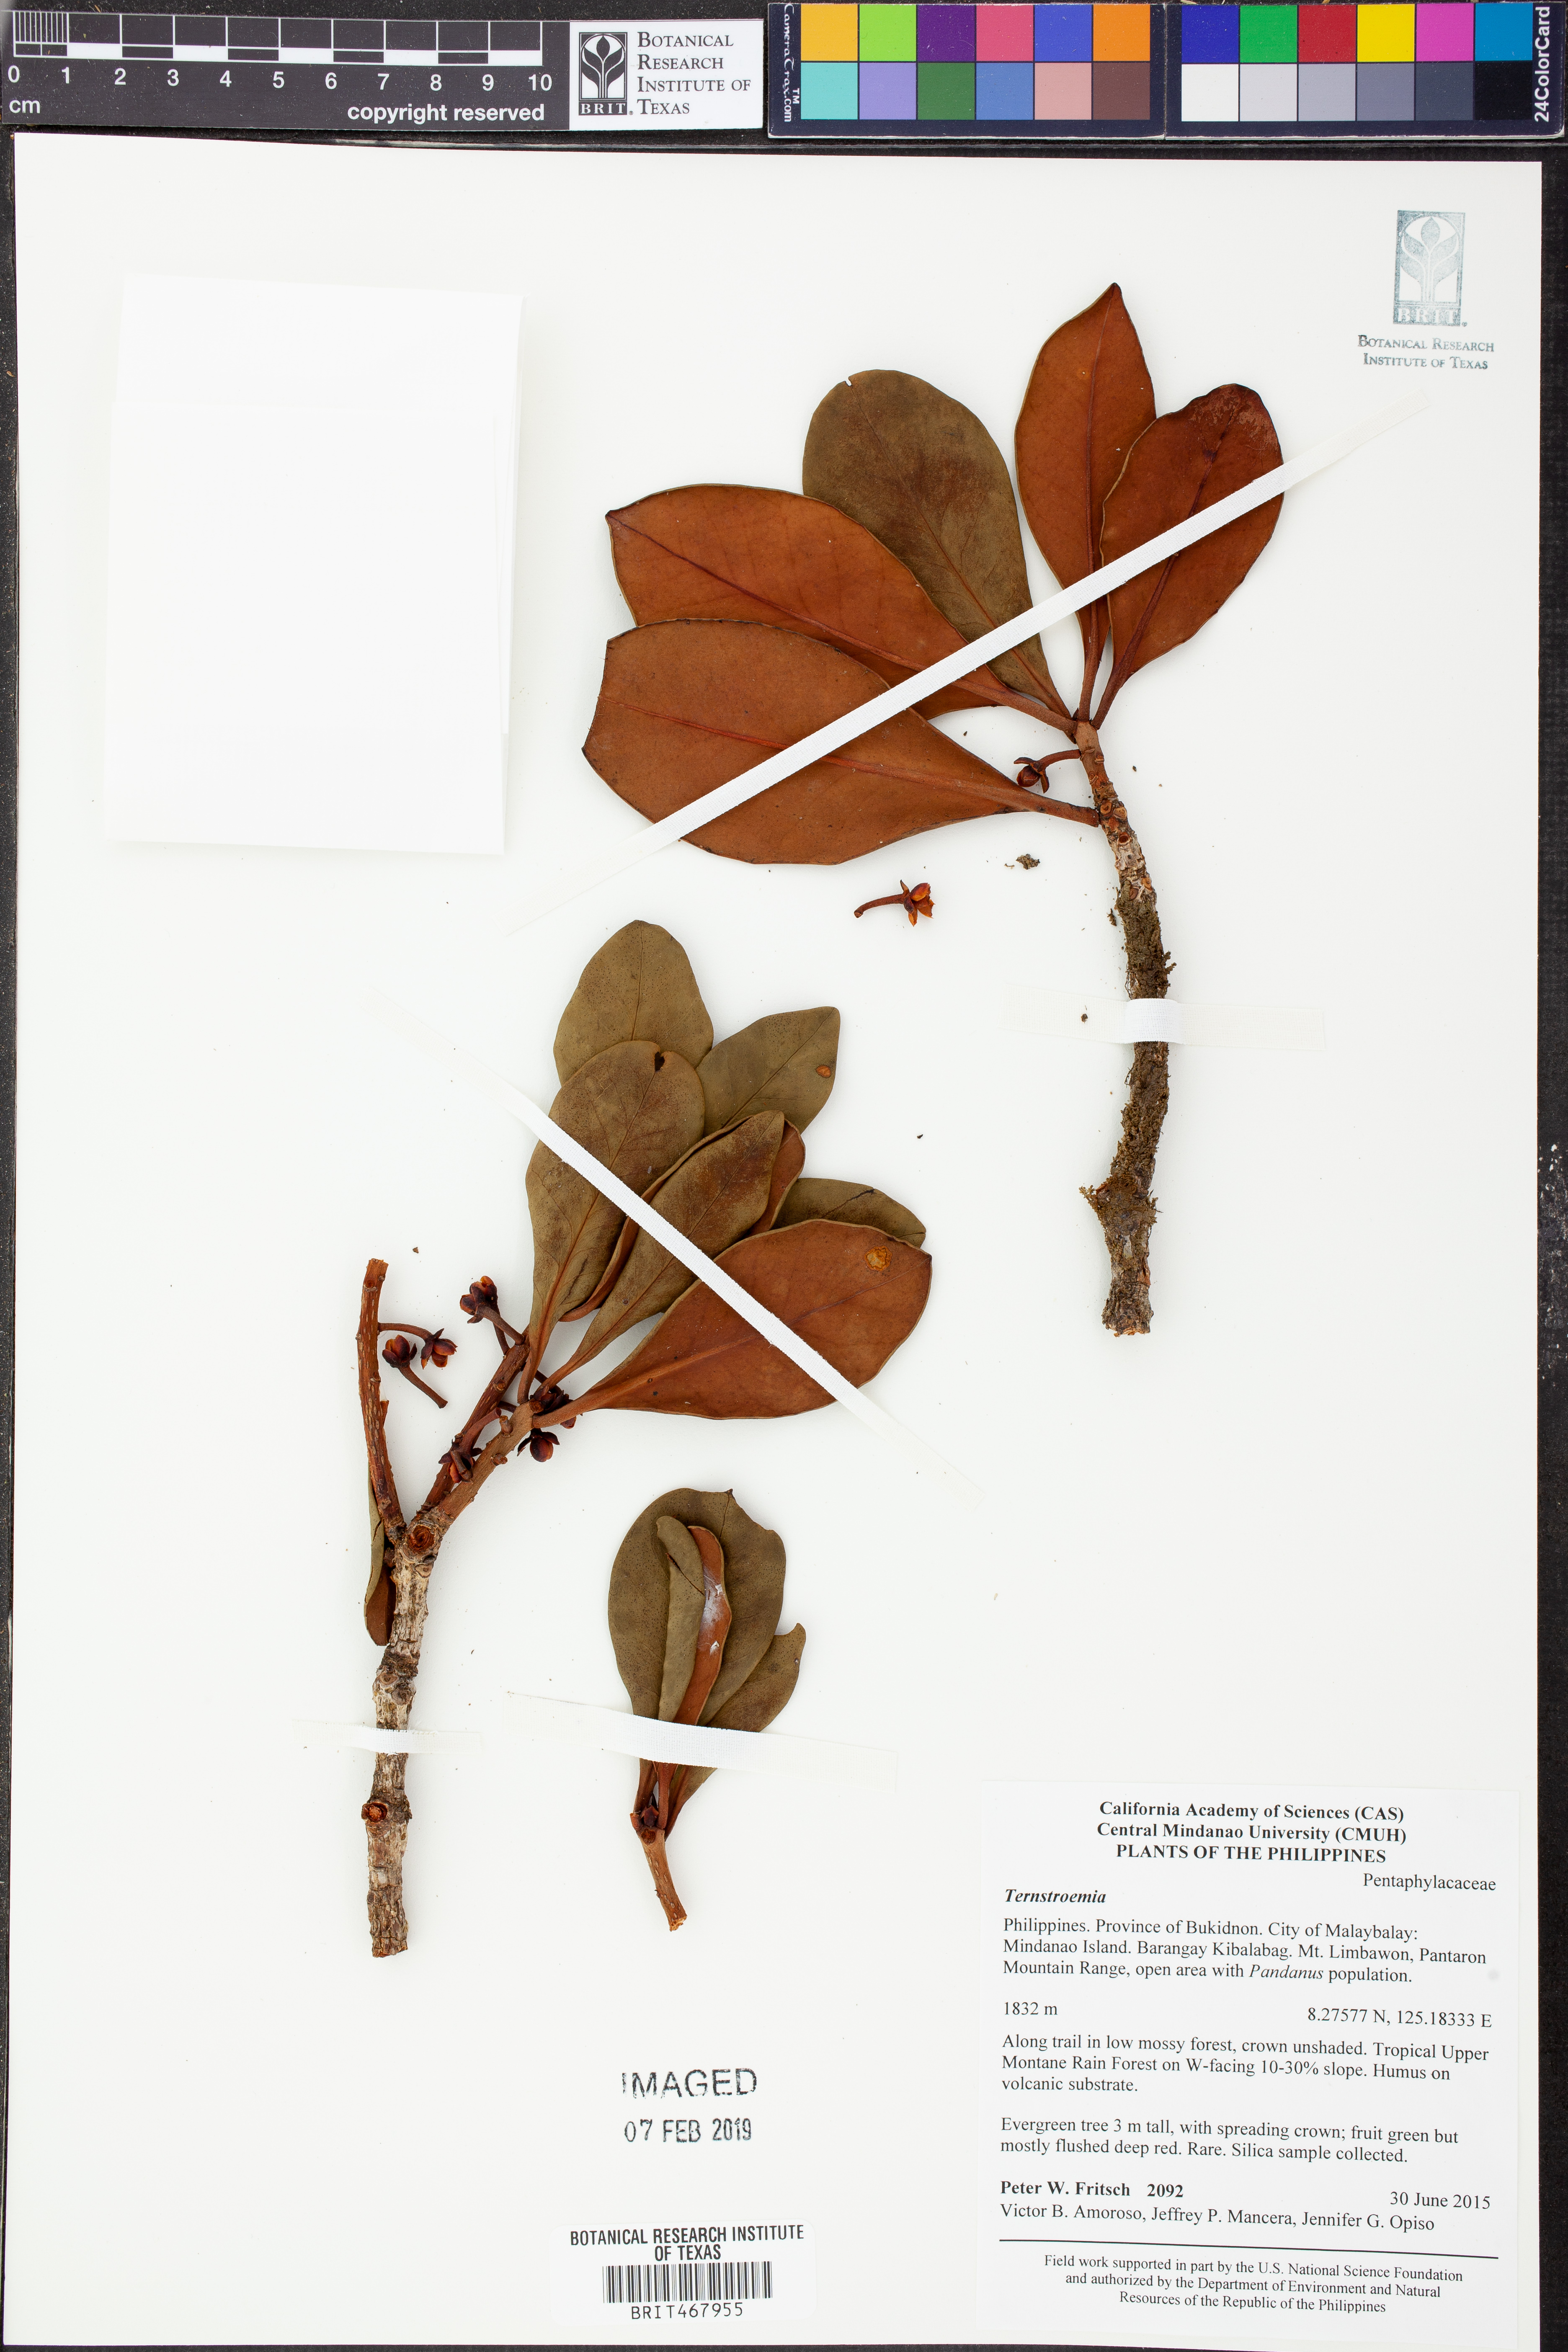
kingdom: Plantae
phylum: Tracheophyta
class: Magnoliopsida
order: Ericales
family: Pentaphylacaceae
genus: Ternstroemia
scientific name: Ternstroemia
